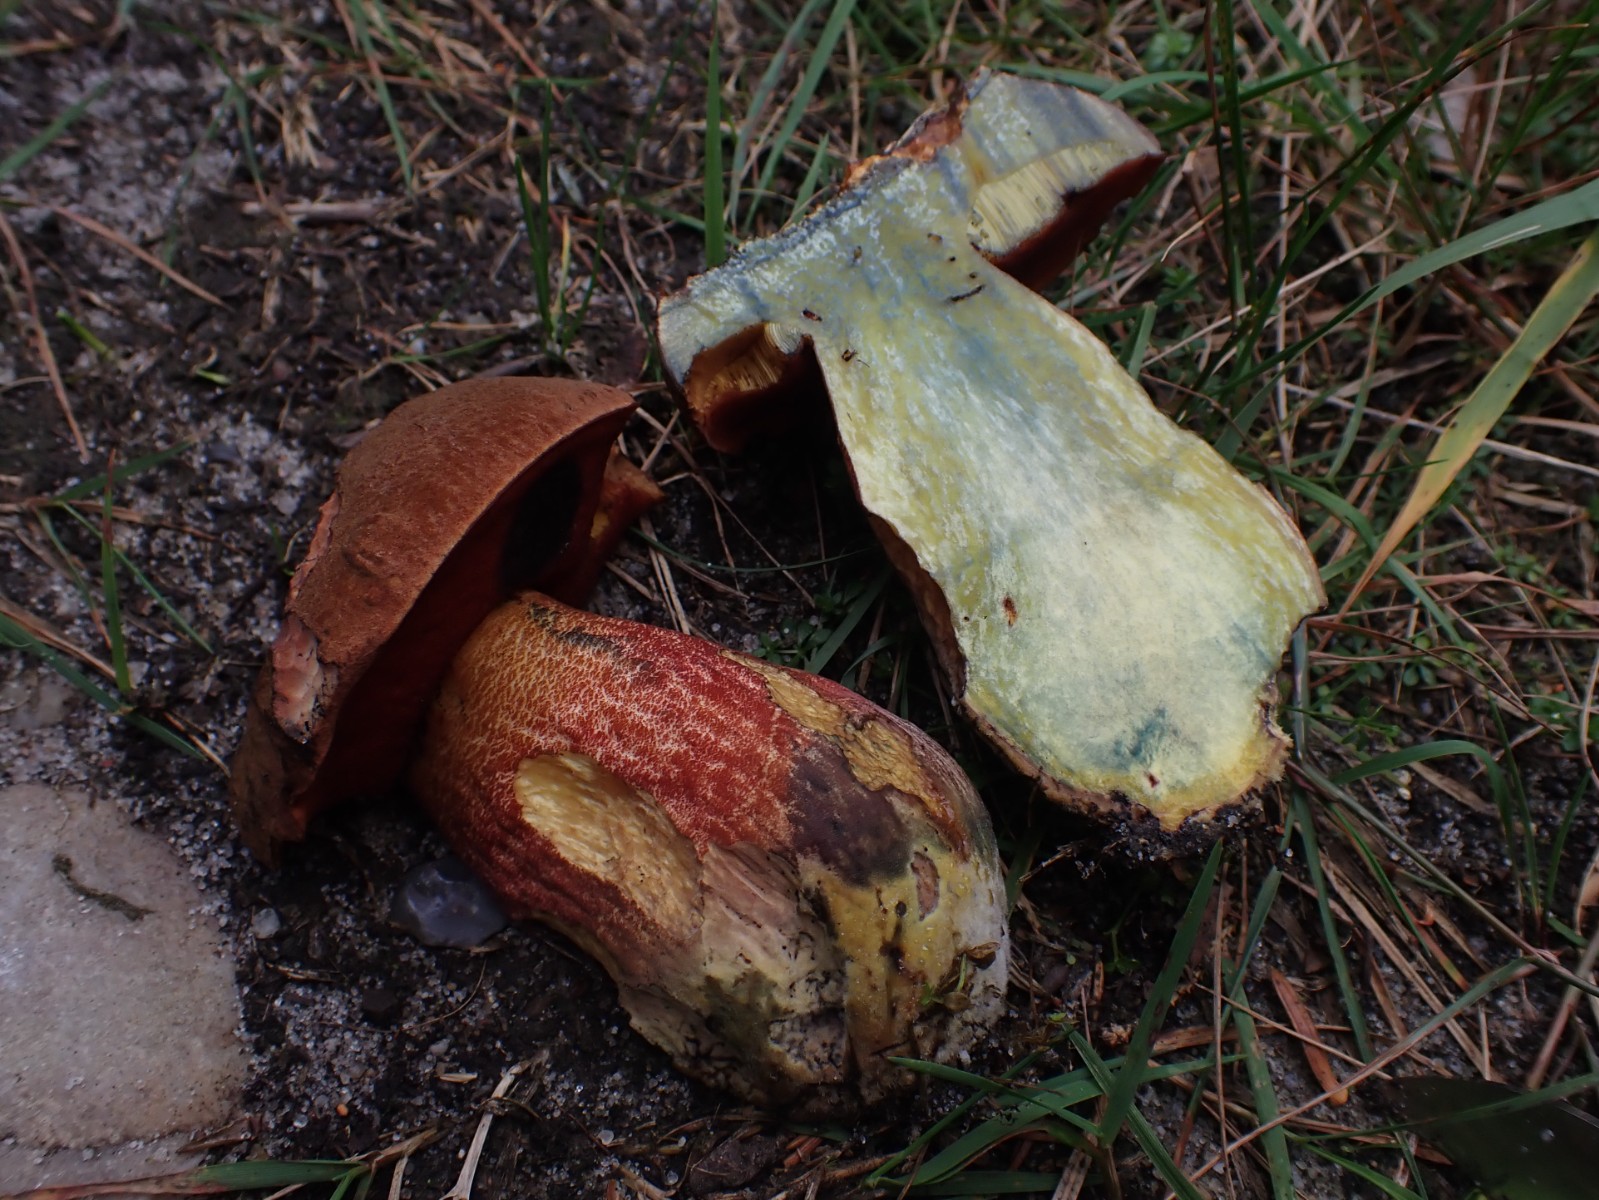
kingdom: Fungi
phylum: Basidiomycota
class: Agaricomycetes
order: Boletales
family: Boletaceae
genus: Neoboletus
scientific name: Neoboletus erythropus
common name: punktstokket indigorørhat
